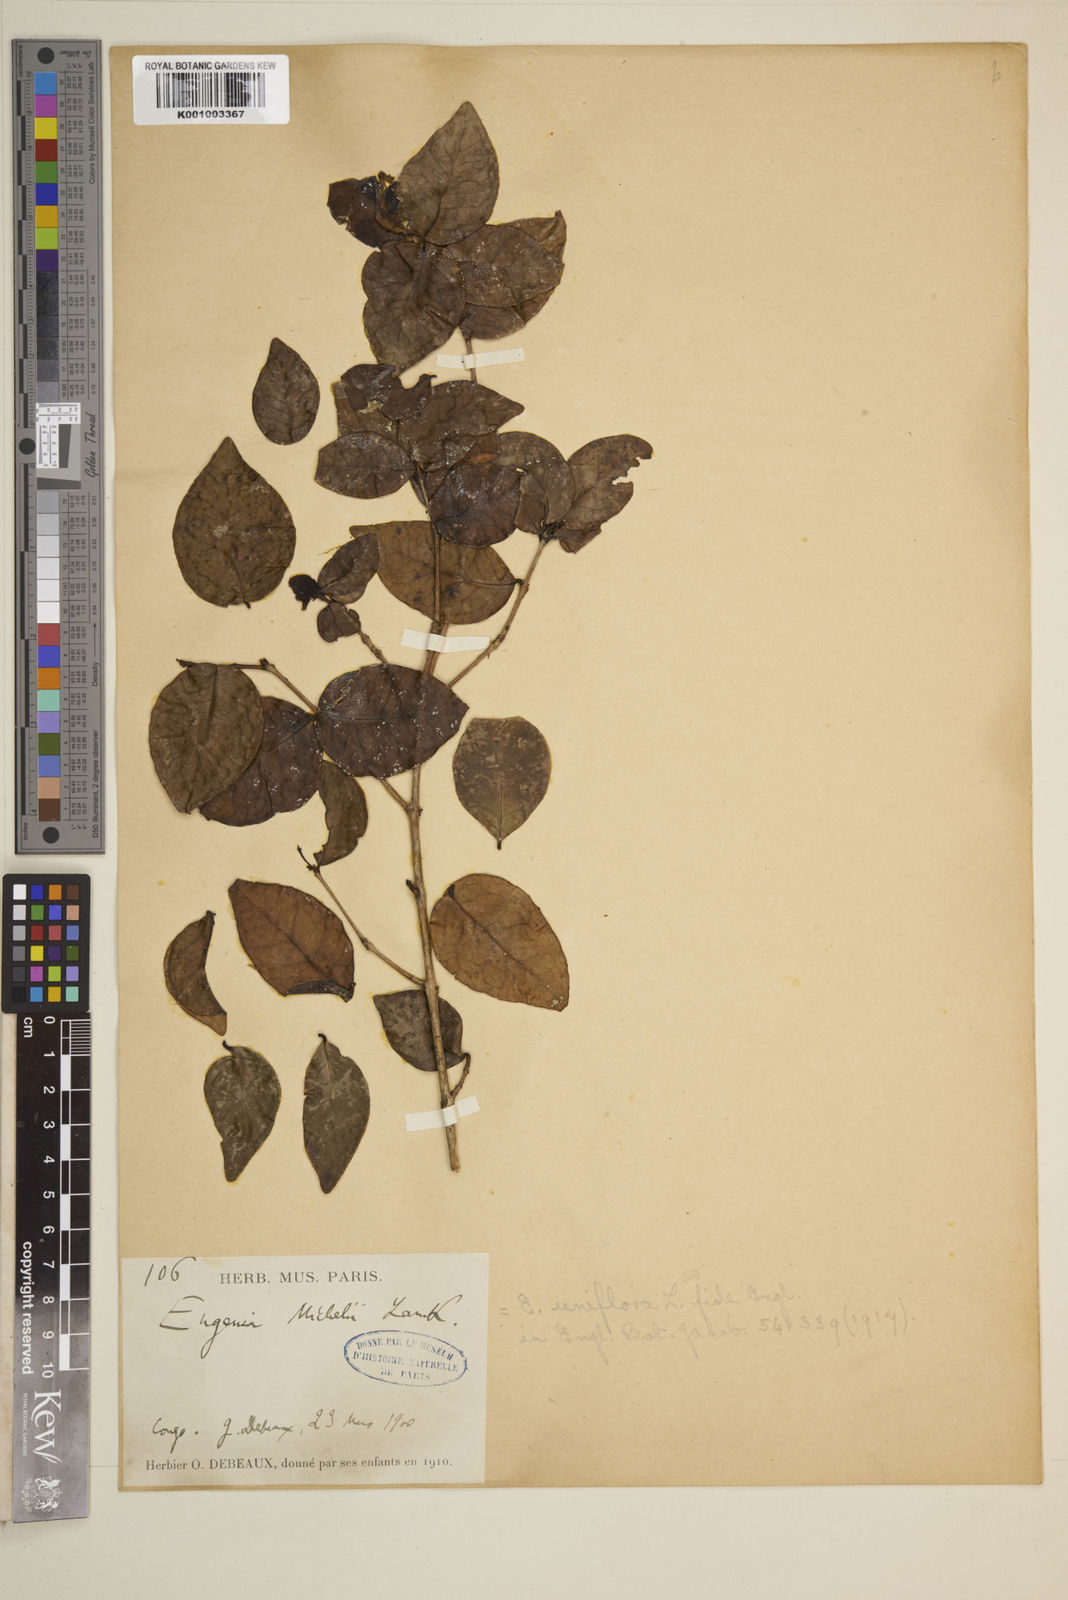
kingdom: Plantae
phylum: Tracheophyta
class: Magnoliopsida
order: Myrtales
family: Myrtaceae
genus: Eugenia
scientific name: Eugenia uniflora
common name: Surinam cherry
